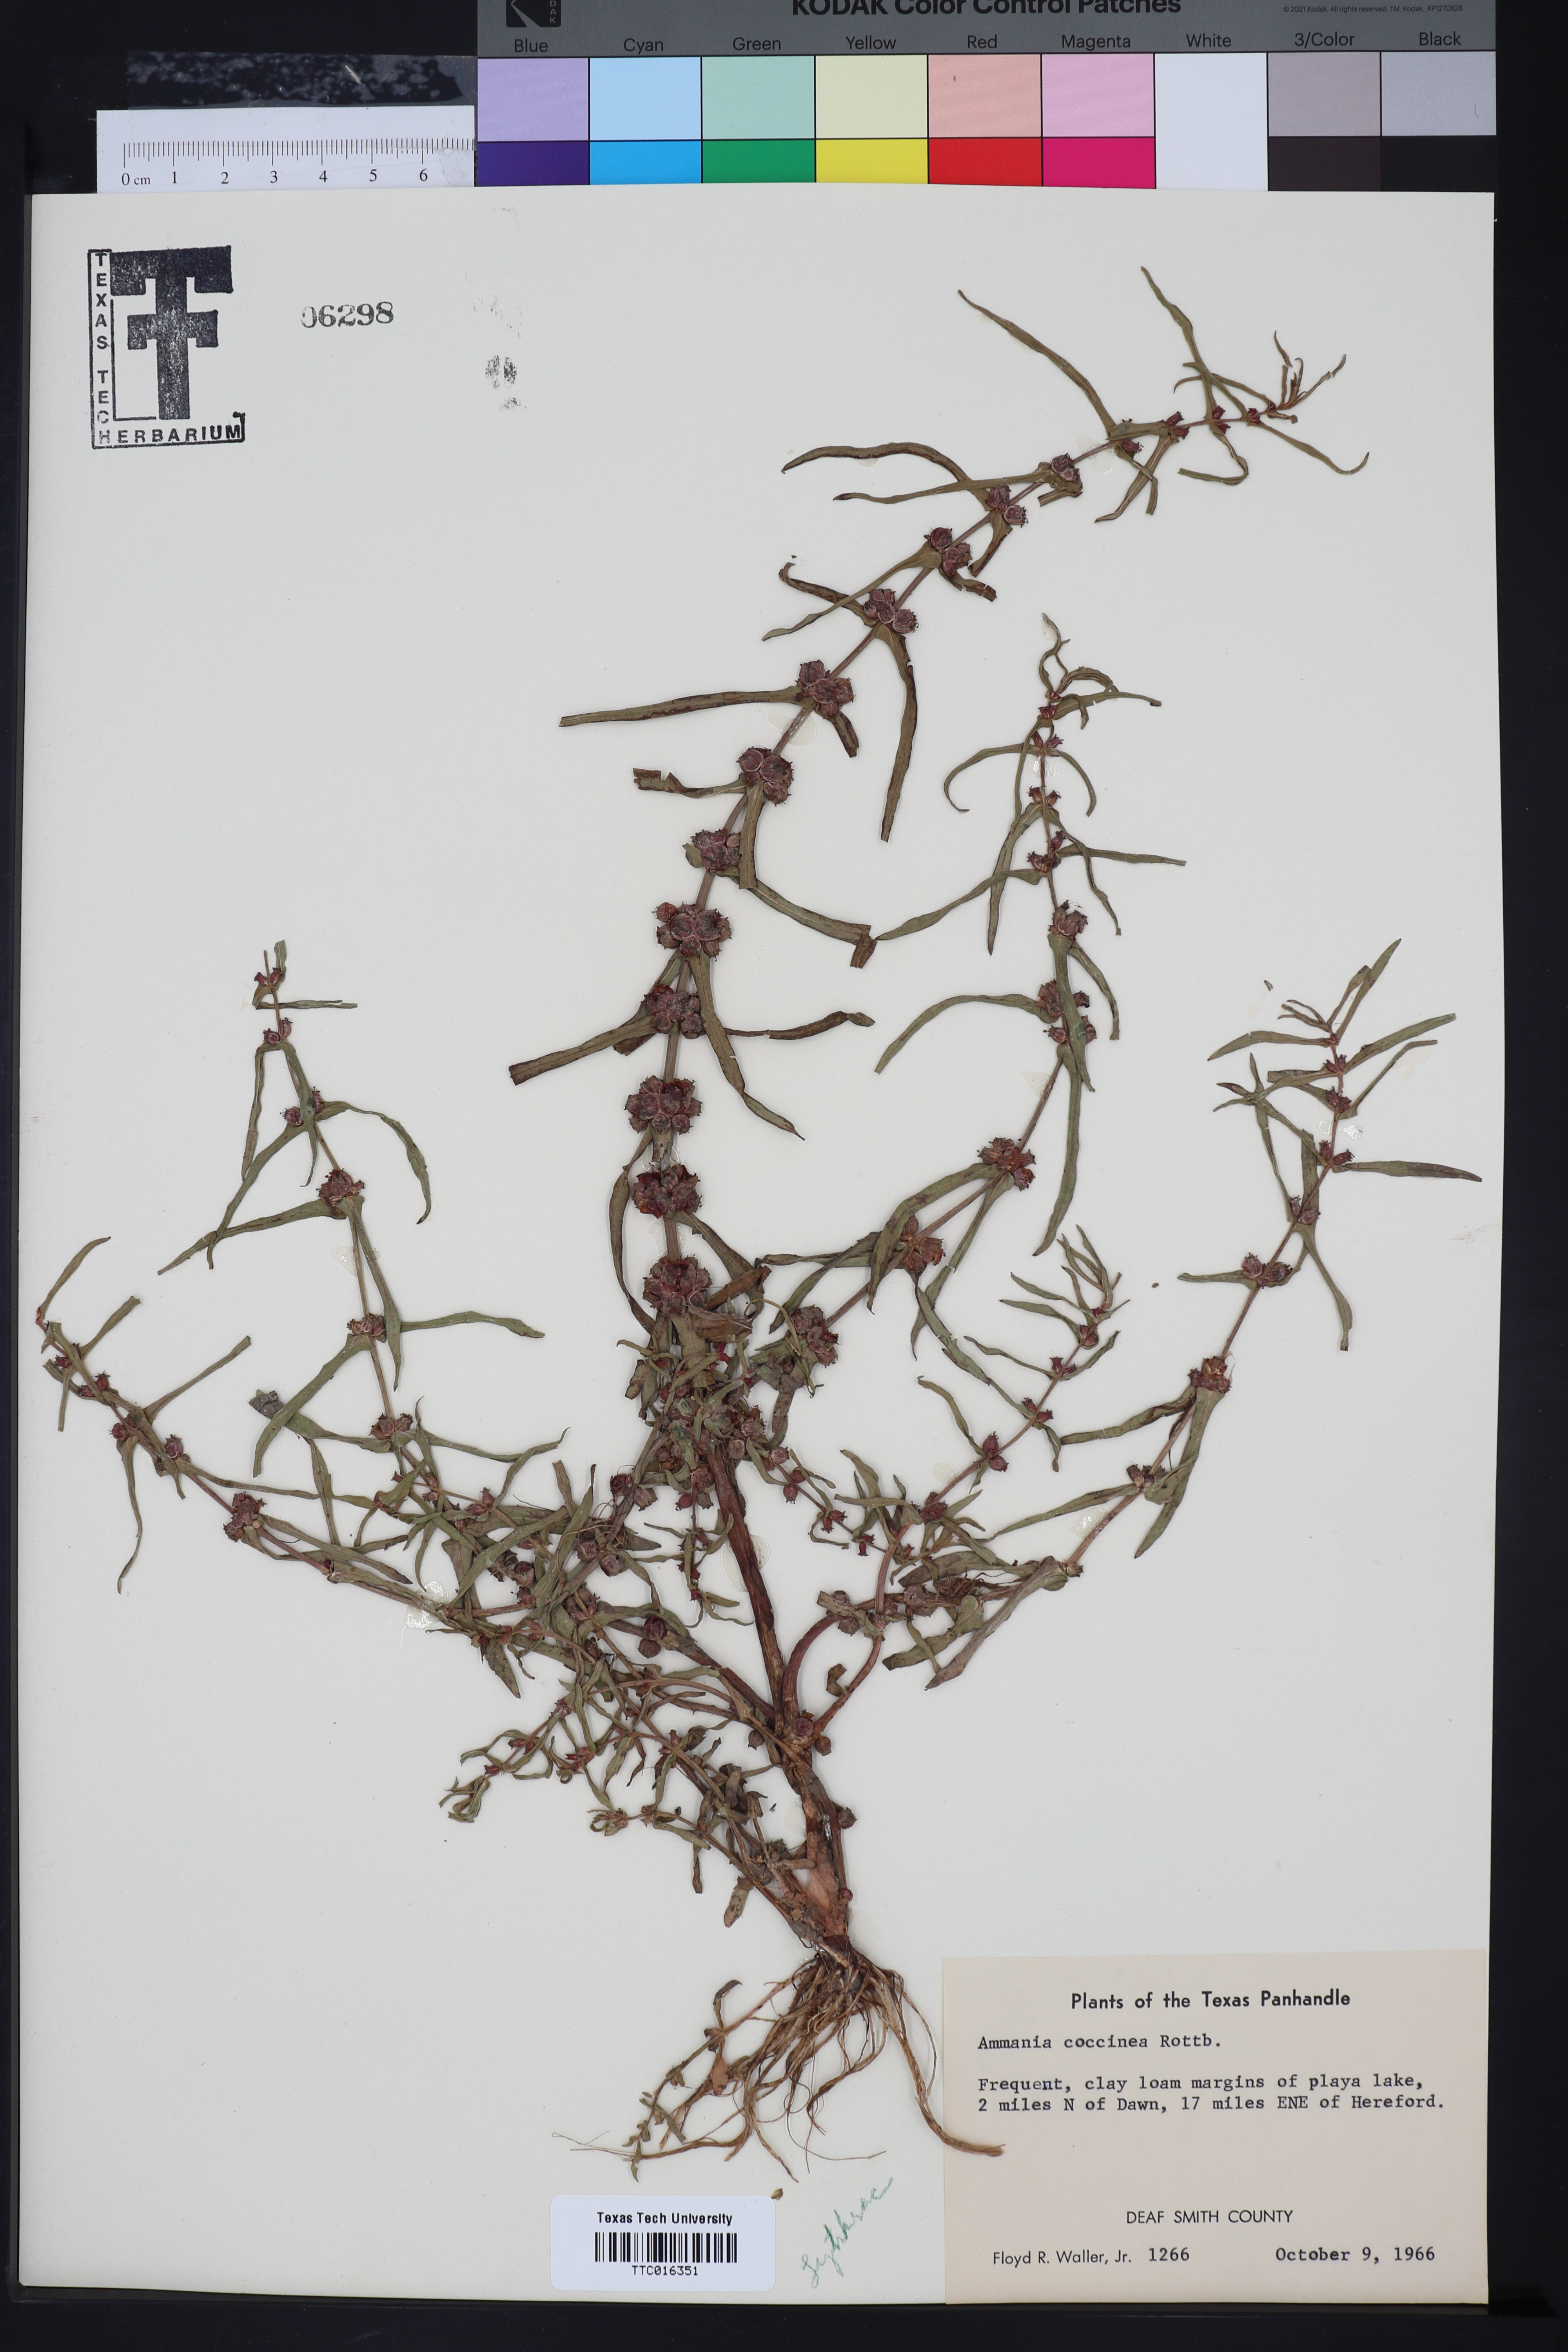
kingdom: Plantae
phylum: Tracheophyta
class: Magnoliopsida
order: Myrtales
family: Lythraceae
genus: Ammannia
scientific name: Ammannia coccinea
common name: Valley redstem
